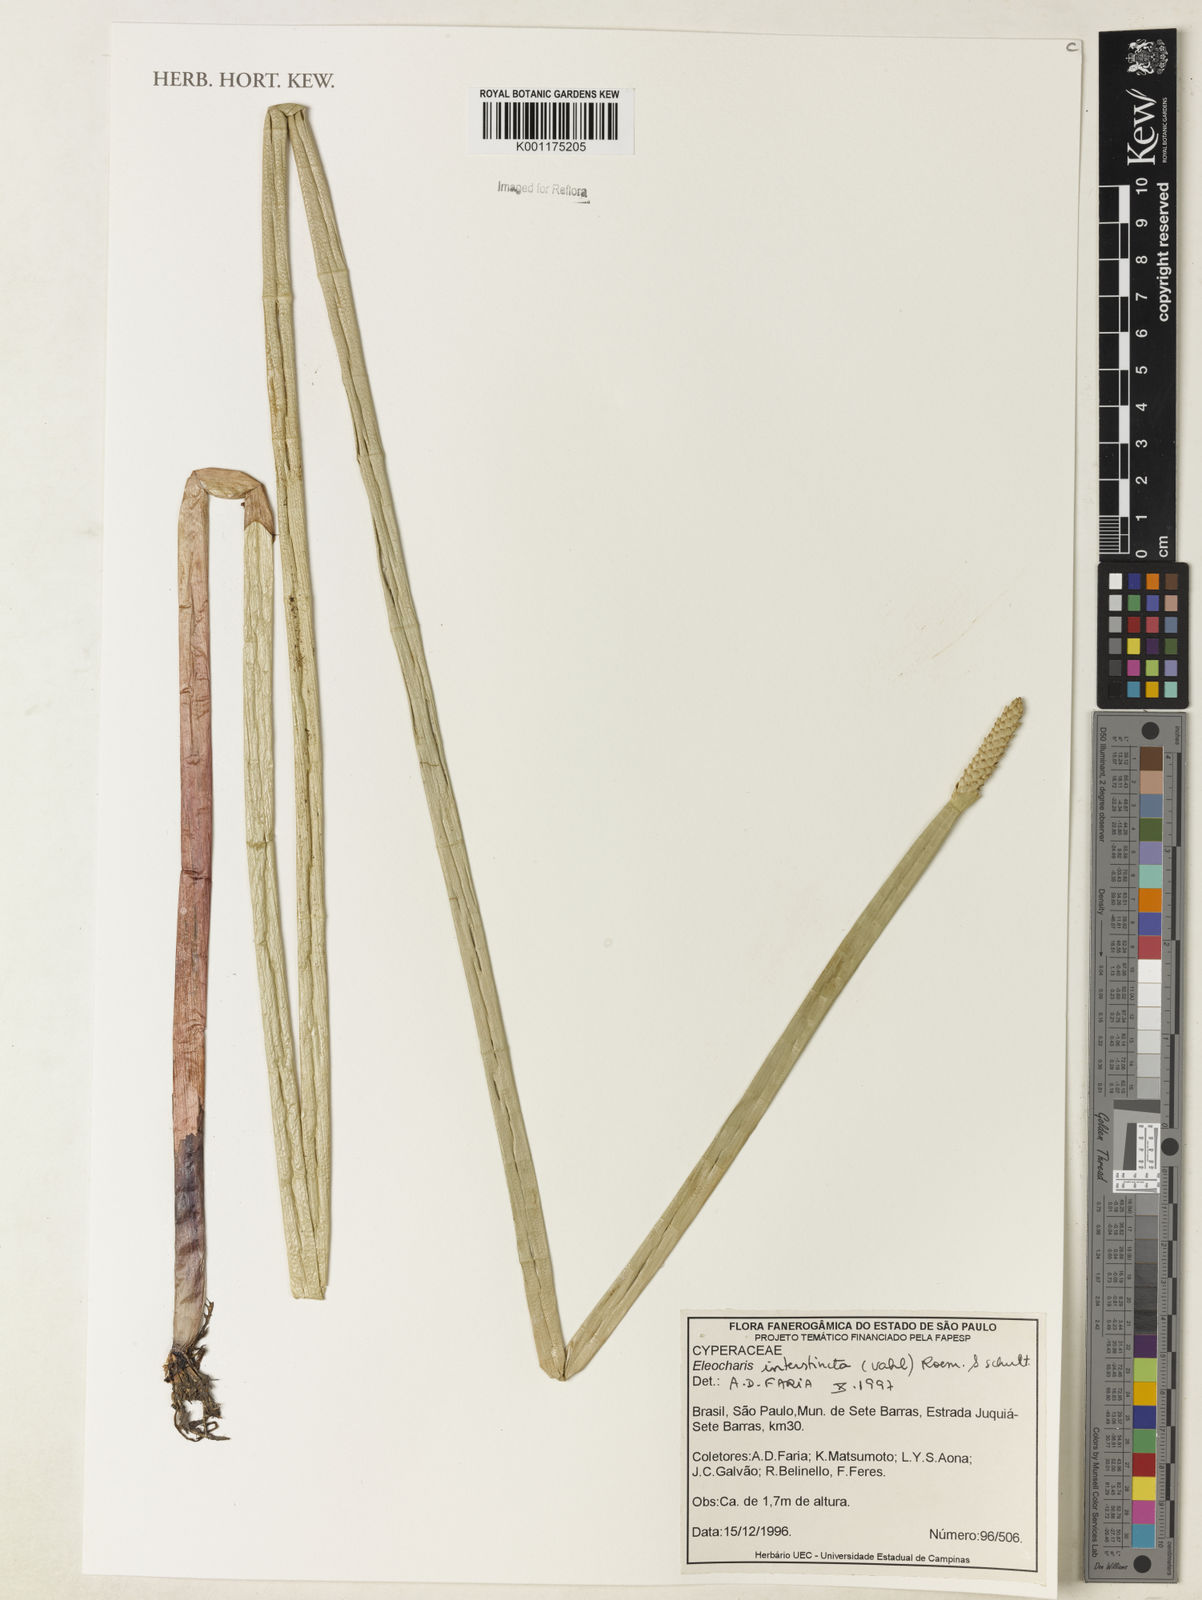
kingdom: Plantae
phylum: Tracheophyta
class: Liliopsida
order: Poales
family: Cyperaceae
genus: Eleocharis
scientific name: Eleocharis interstincta
